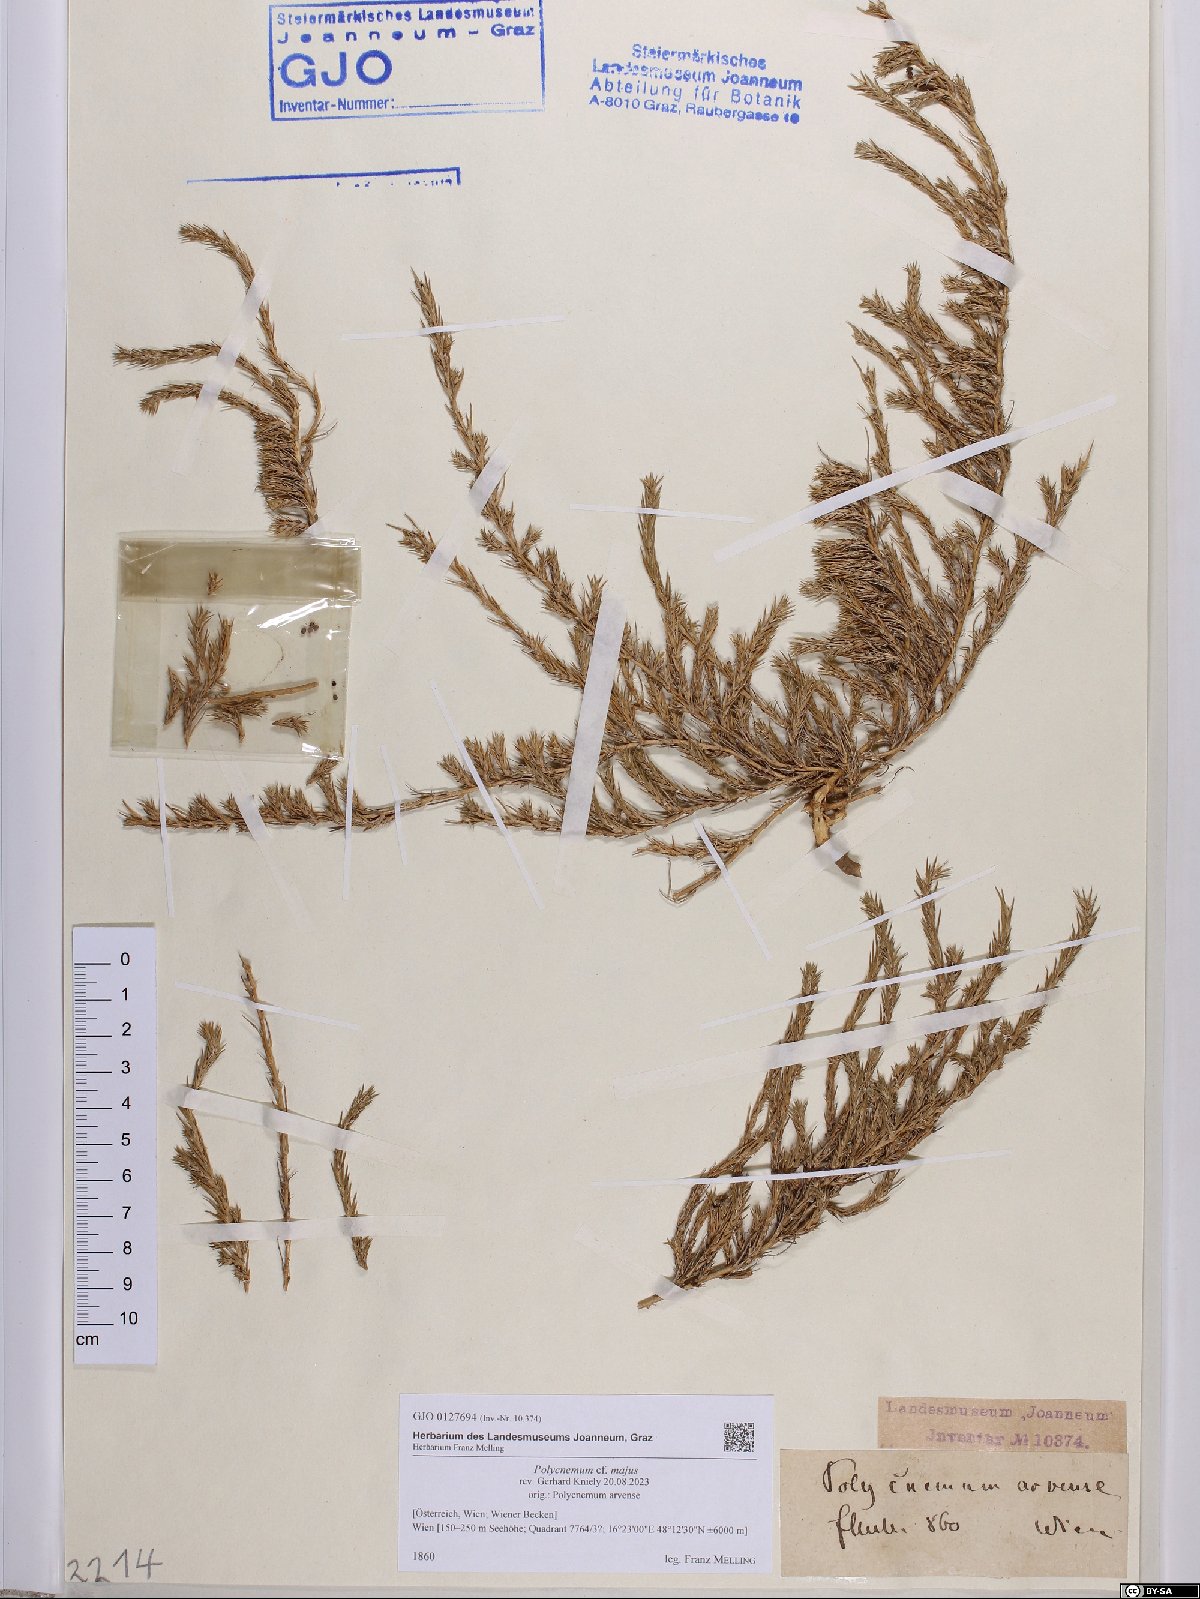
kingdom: Plantae
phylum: Tracheophyta
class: Magnoliopsida
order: Caryophyllales
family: Amaranthaceae
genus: Polycnemum
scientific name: Polycnemum majus
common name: Giant needleleaf
